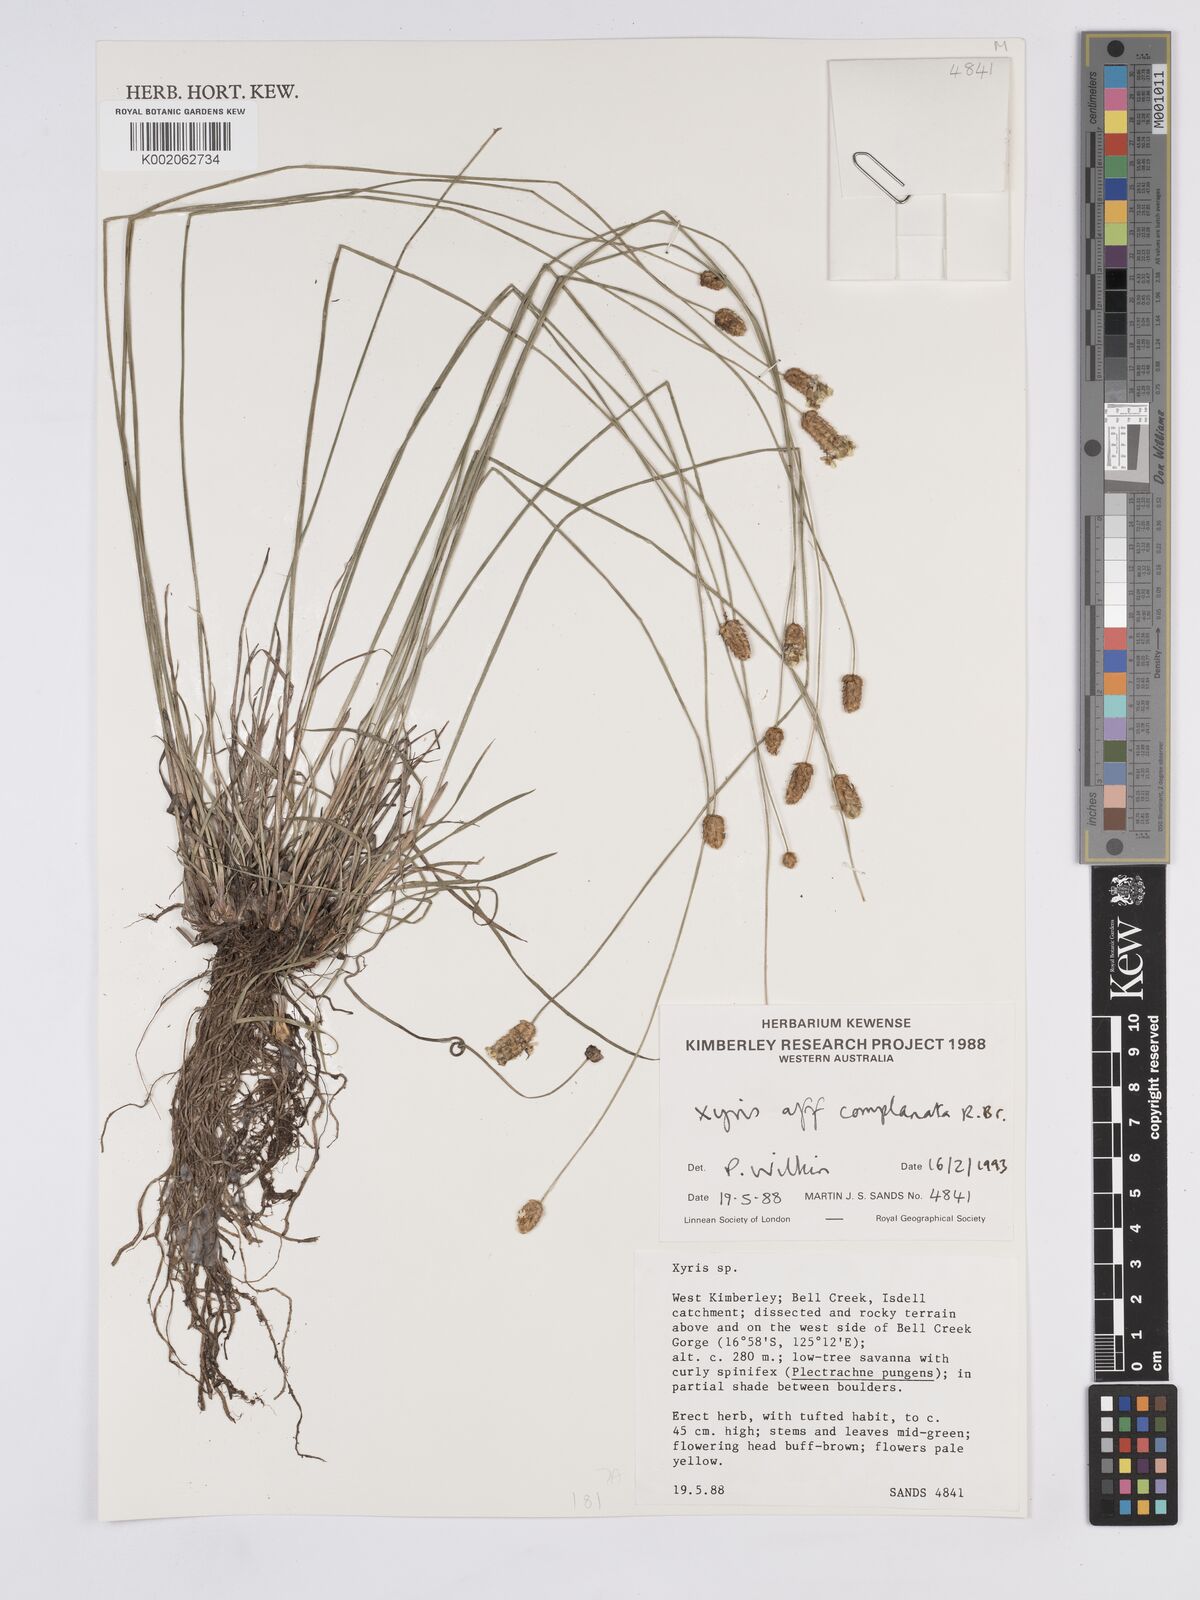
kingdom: Plantae
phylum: Tracheophyta
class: Liliopsida
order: Poales
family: Xyridaceae
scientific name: Xyridaceae
